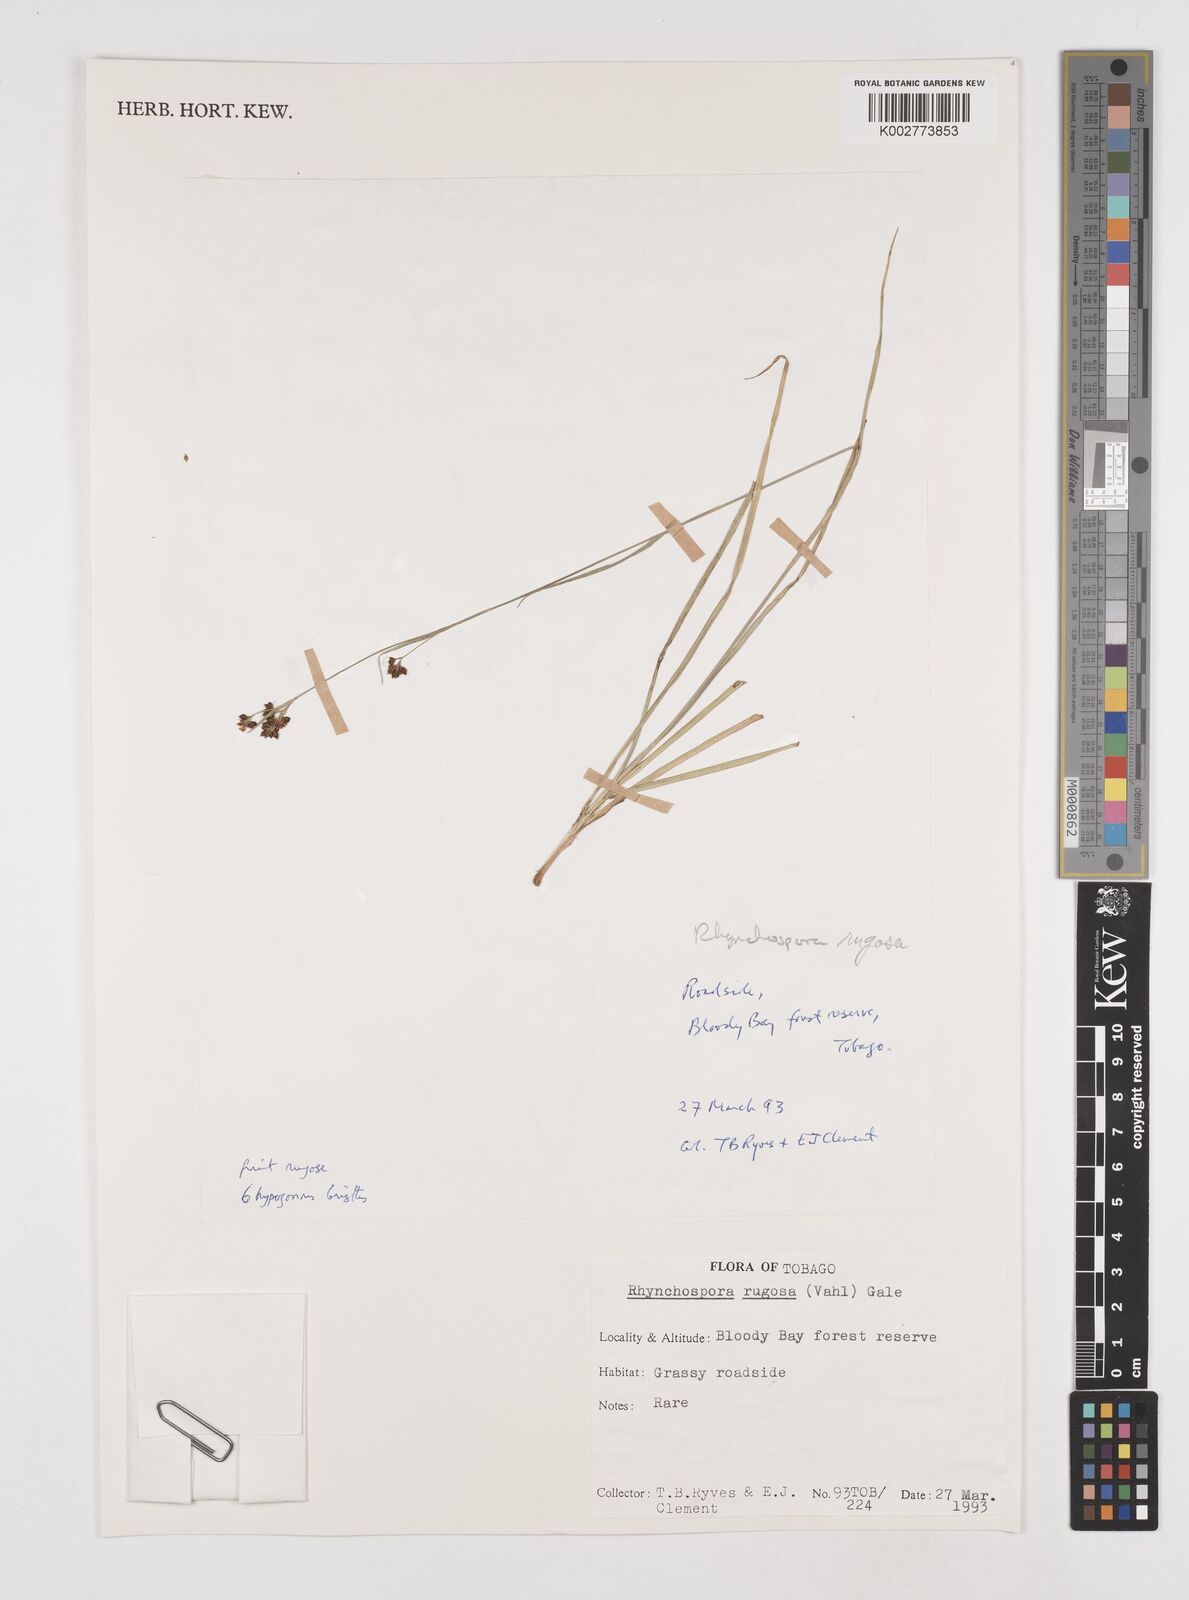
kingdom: Plantae
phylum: Tracheophyta
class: Liliopsida
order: Poales
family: Cyperaceae
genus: Rhynchospora
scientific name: Rhynchospora rugosa
